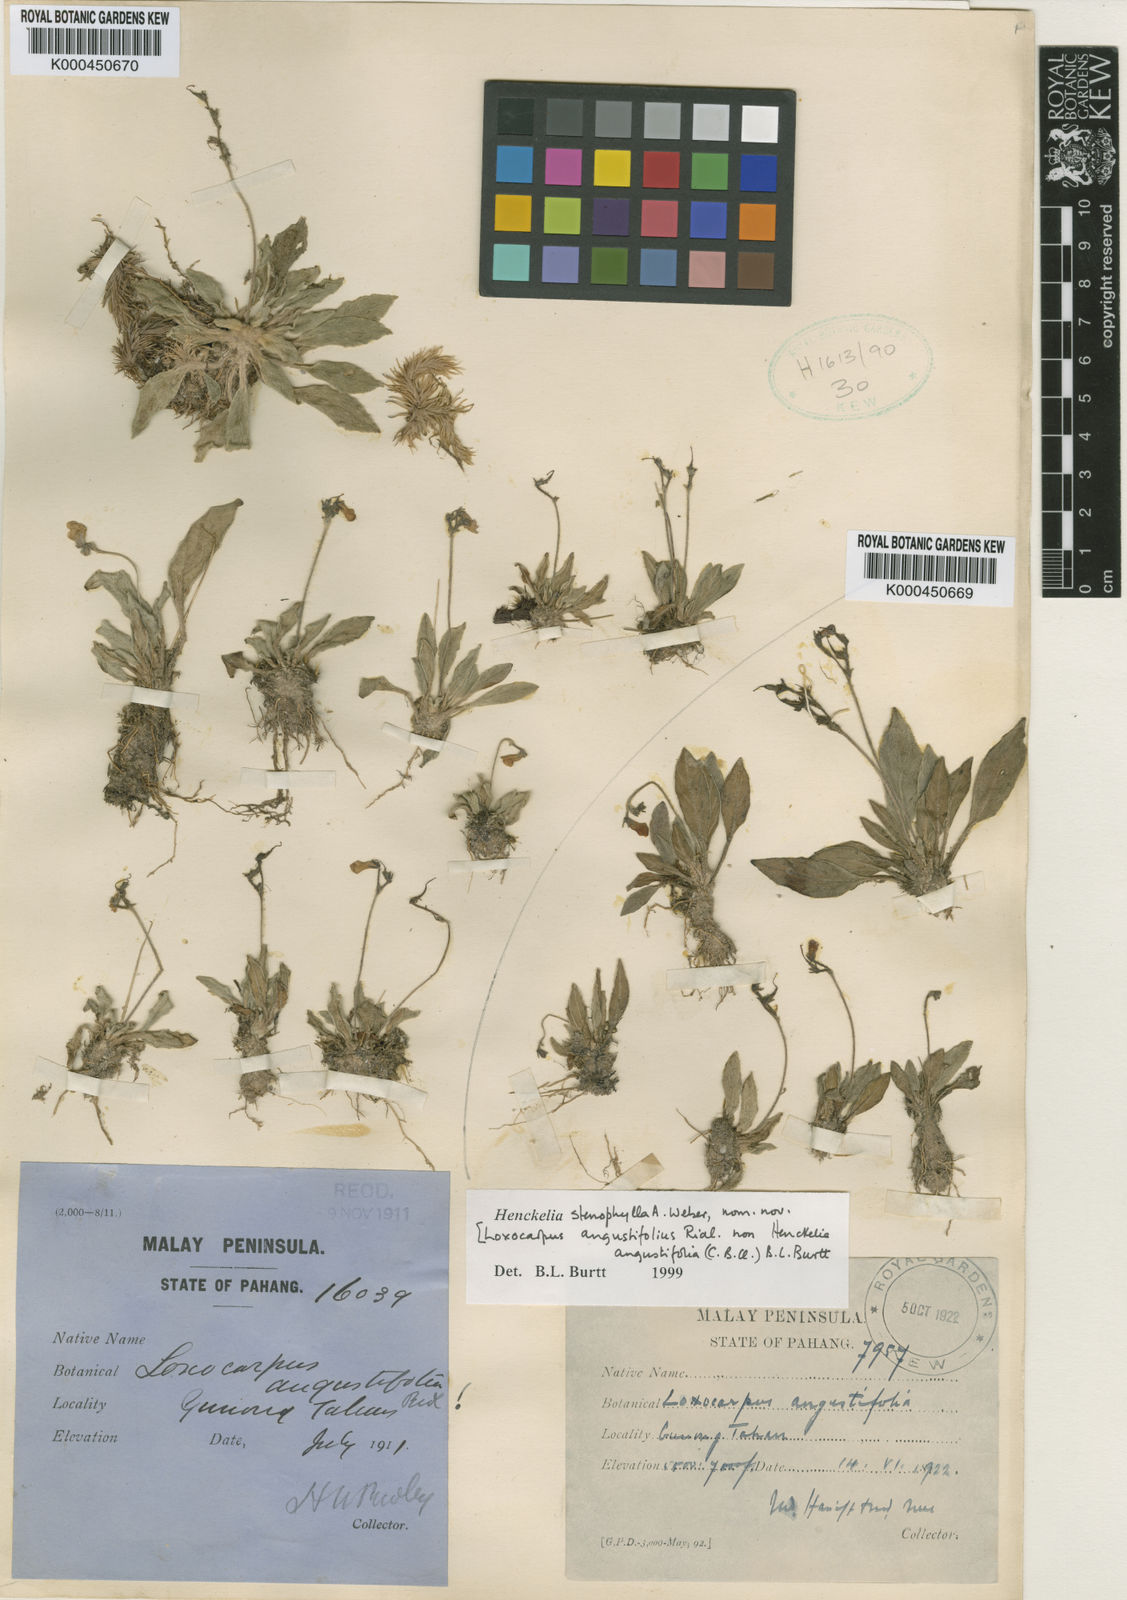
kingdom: Plantae
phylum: Tracheophyta
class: Magnoliopsida
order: Lamiales
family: Gesneriaceae
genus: Loxocarpus
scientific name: Loxocarpus angustifolius
